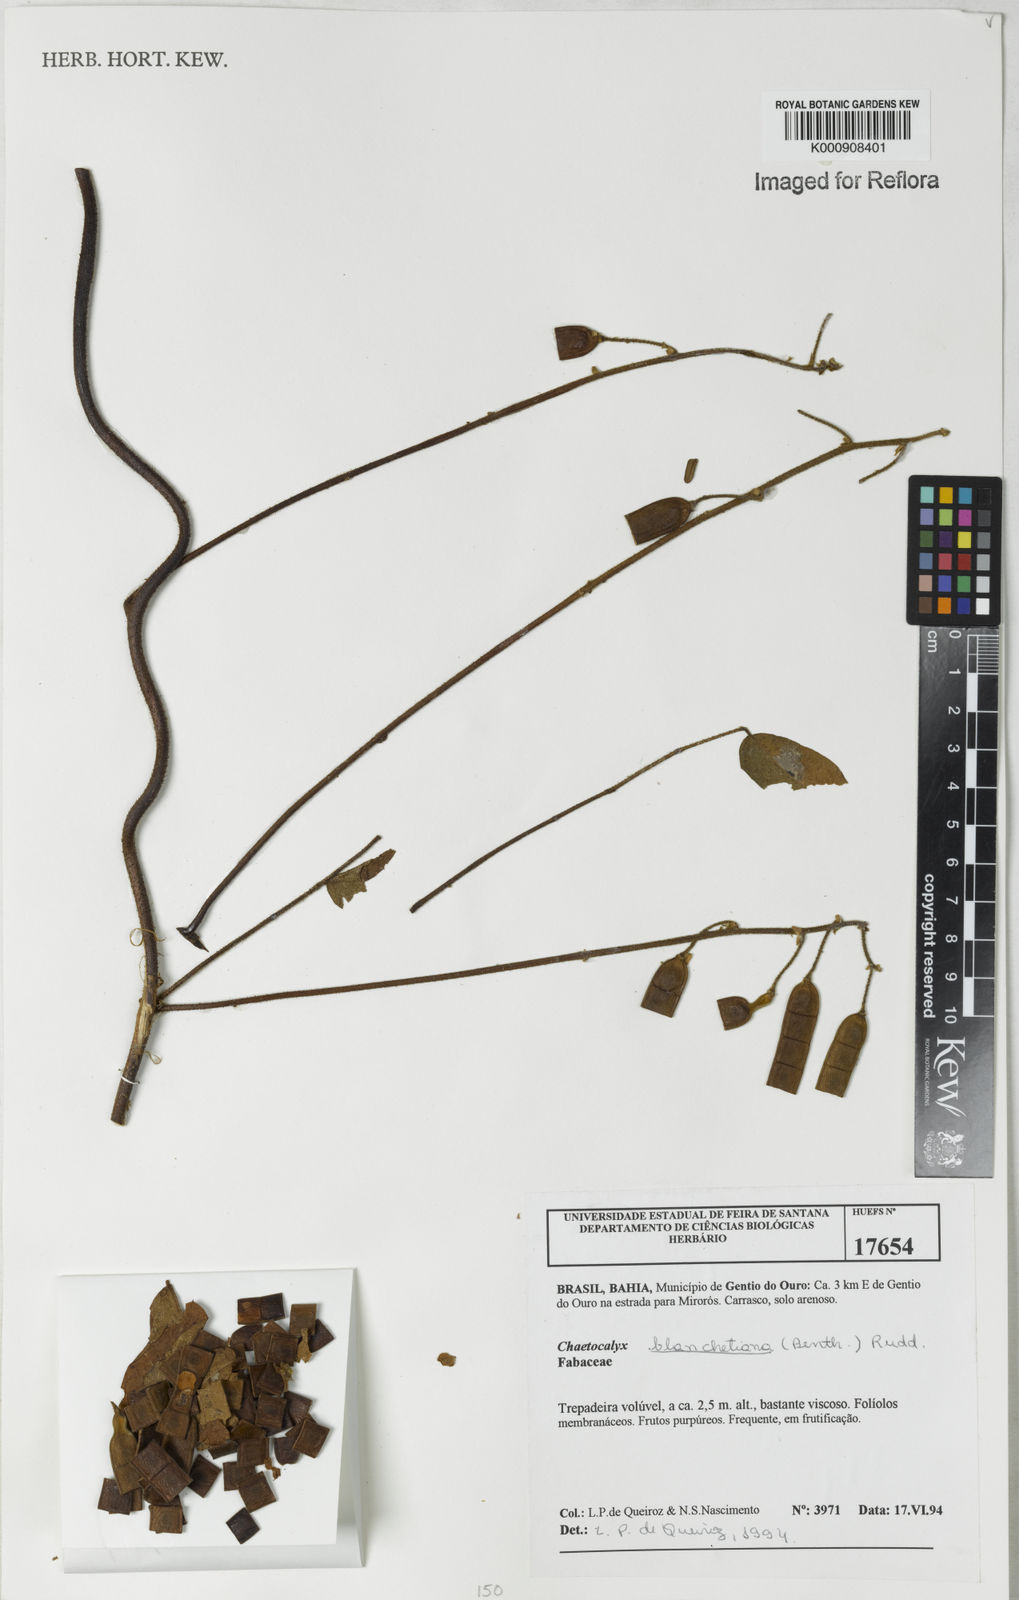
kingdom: Plantae
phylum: Tracheophyta
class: Magnoliopsida
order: Fabales
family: Fabaceae
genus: Nissolia
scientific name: Nissolia blanchetiana
